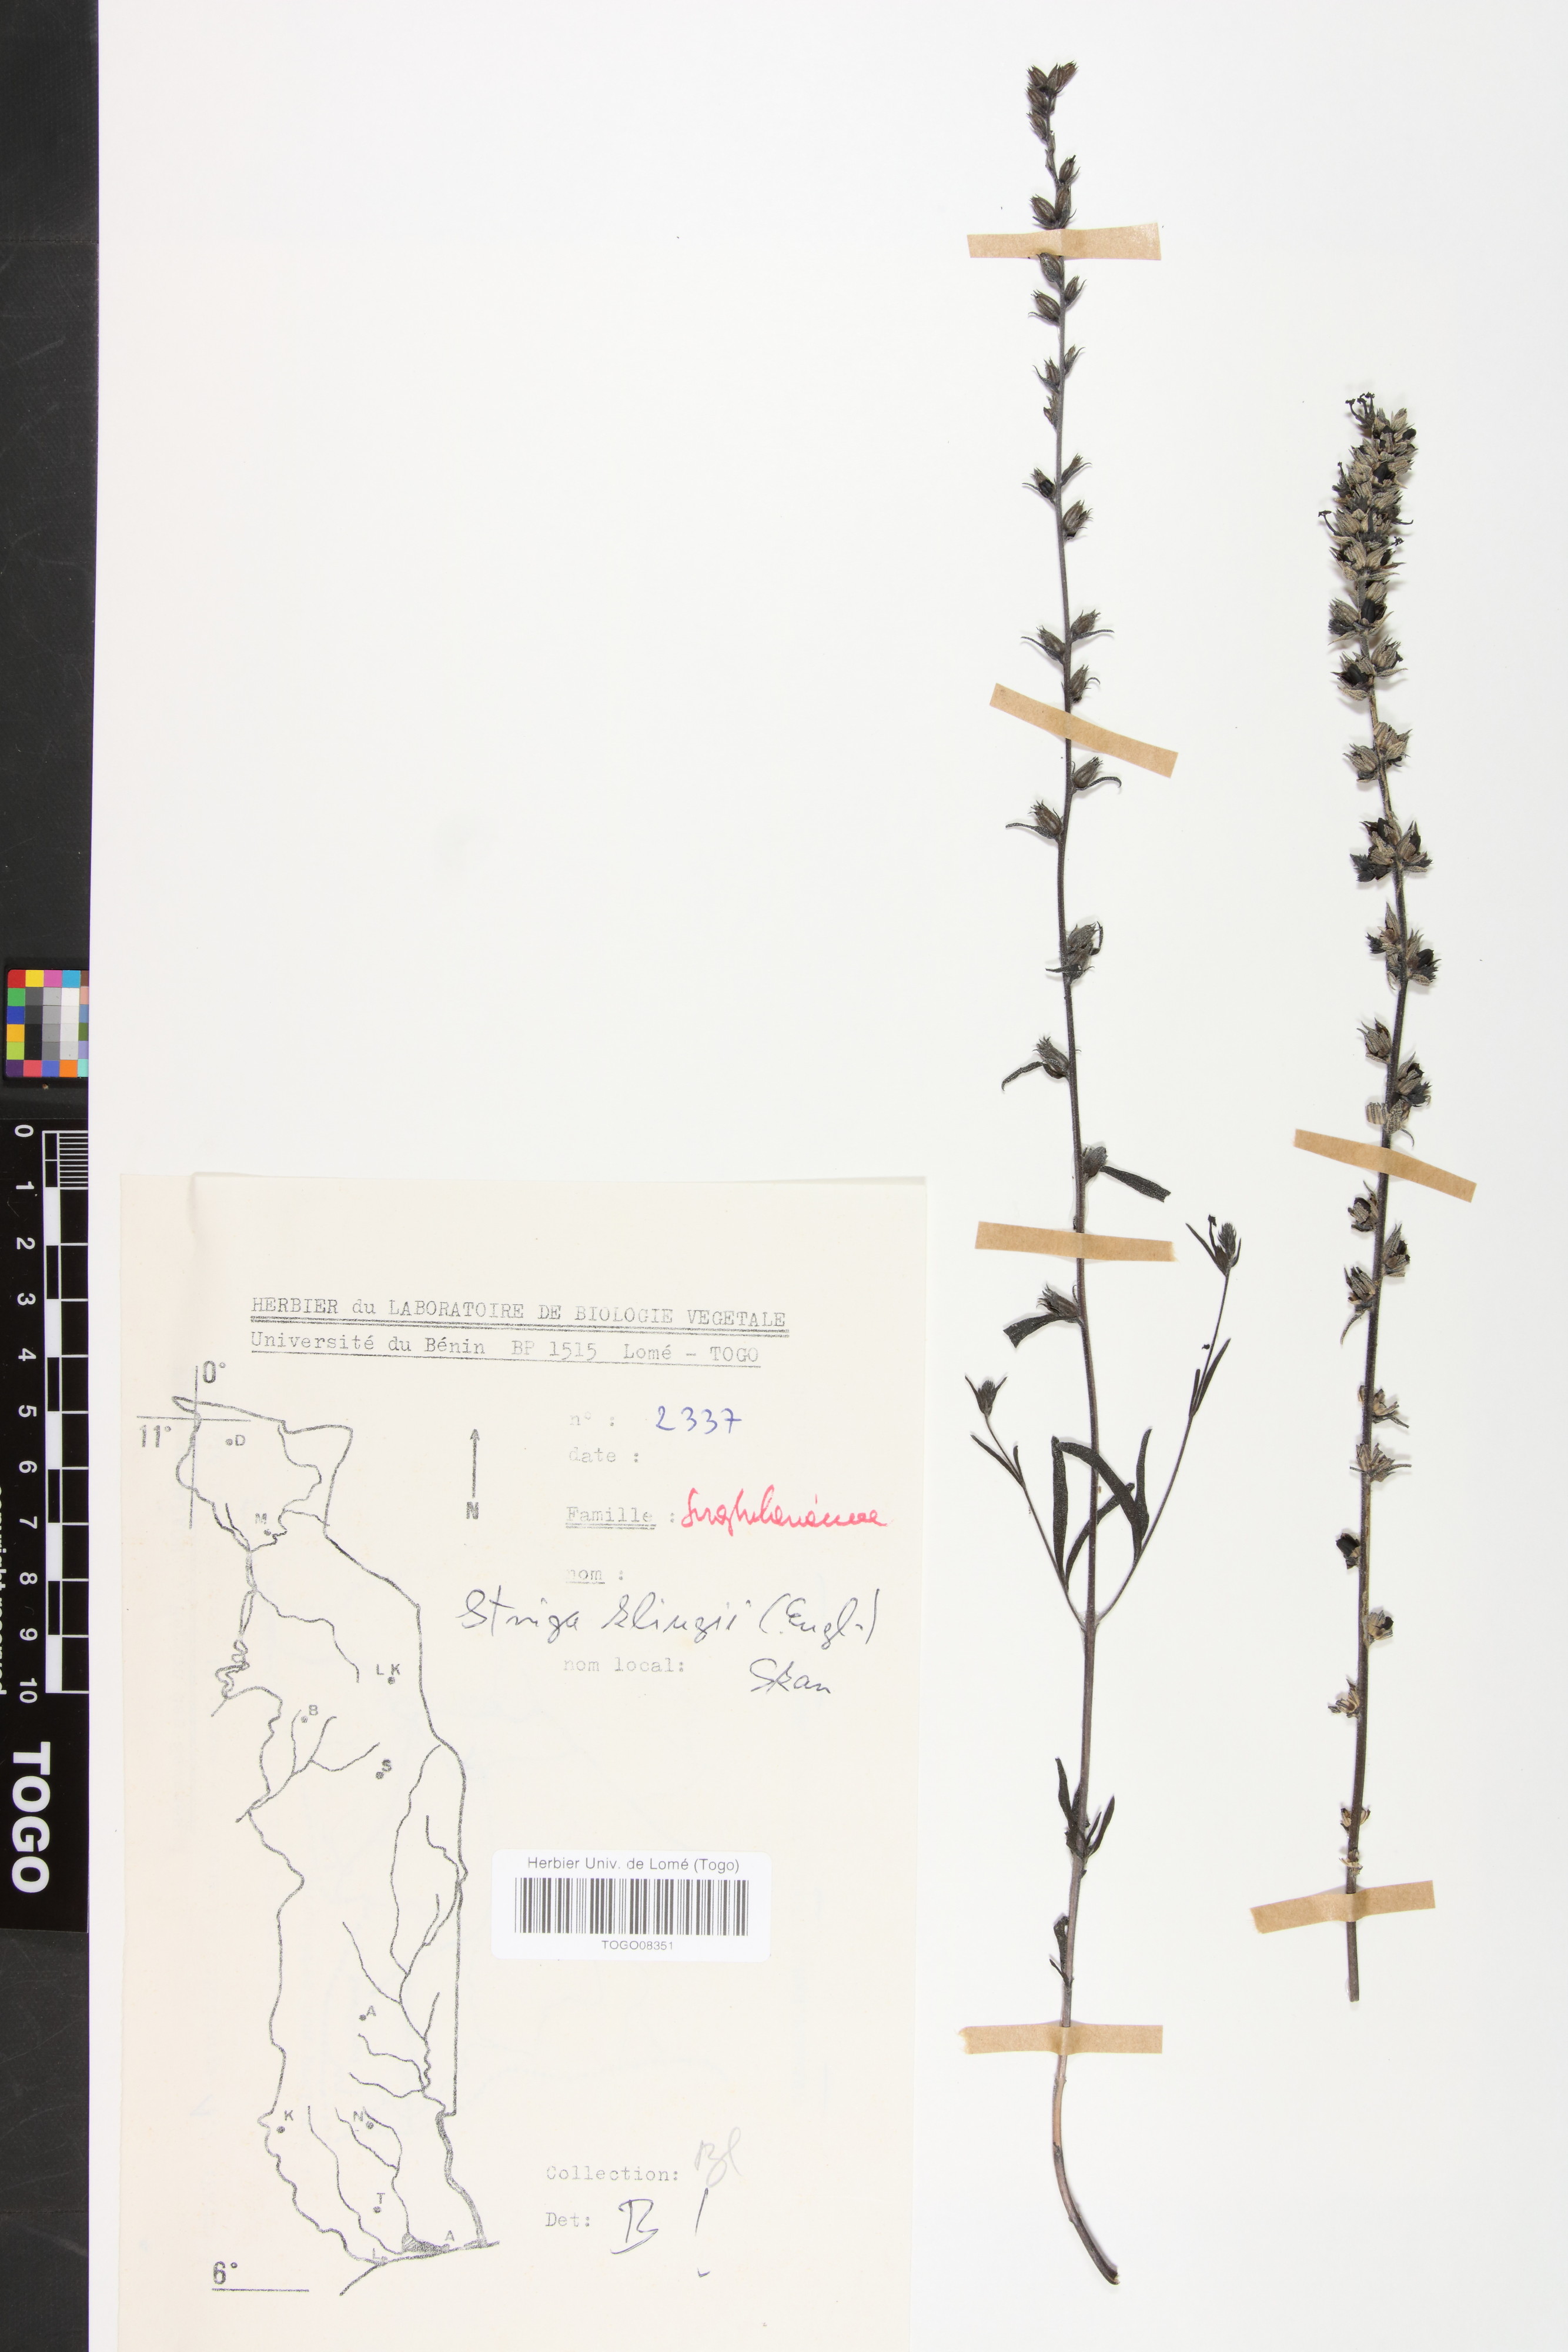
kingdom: Plantae
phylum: Tracheophyta
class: Magnoliopsida
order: Lamiales
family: Orobanchaceae
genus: Striga
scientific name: Striga klingii
